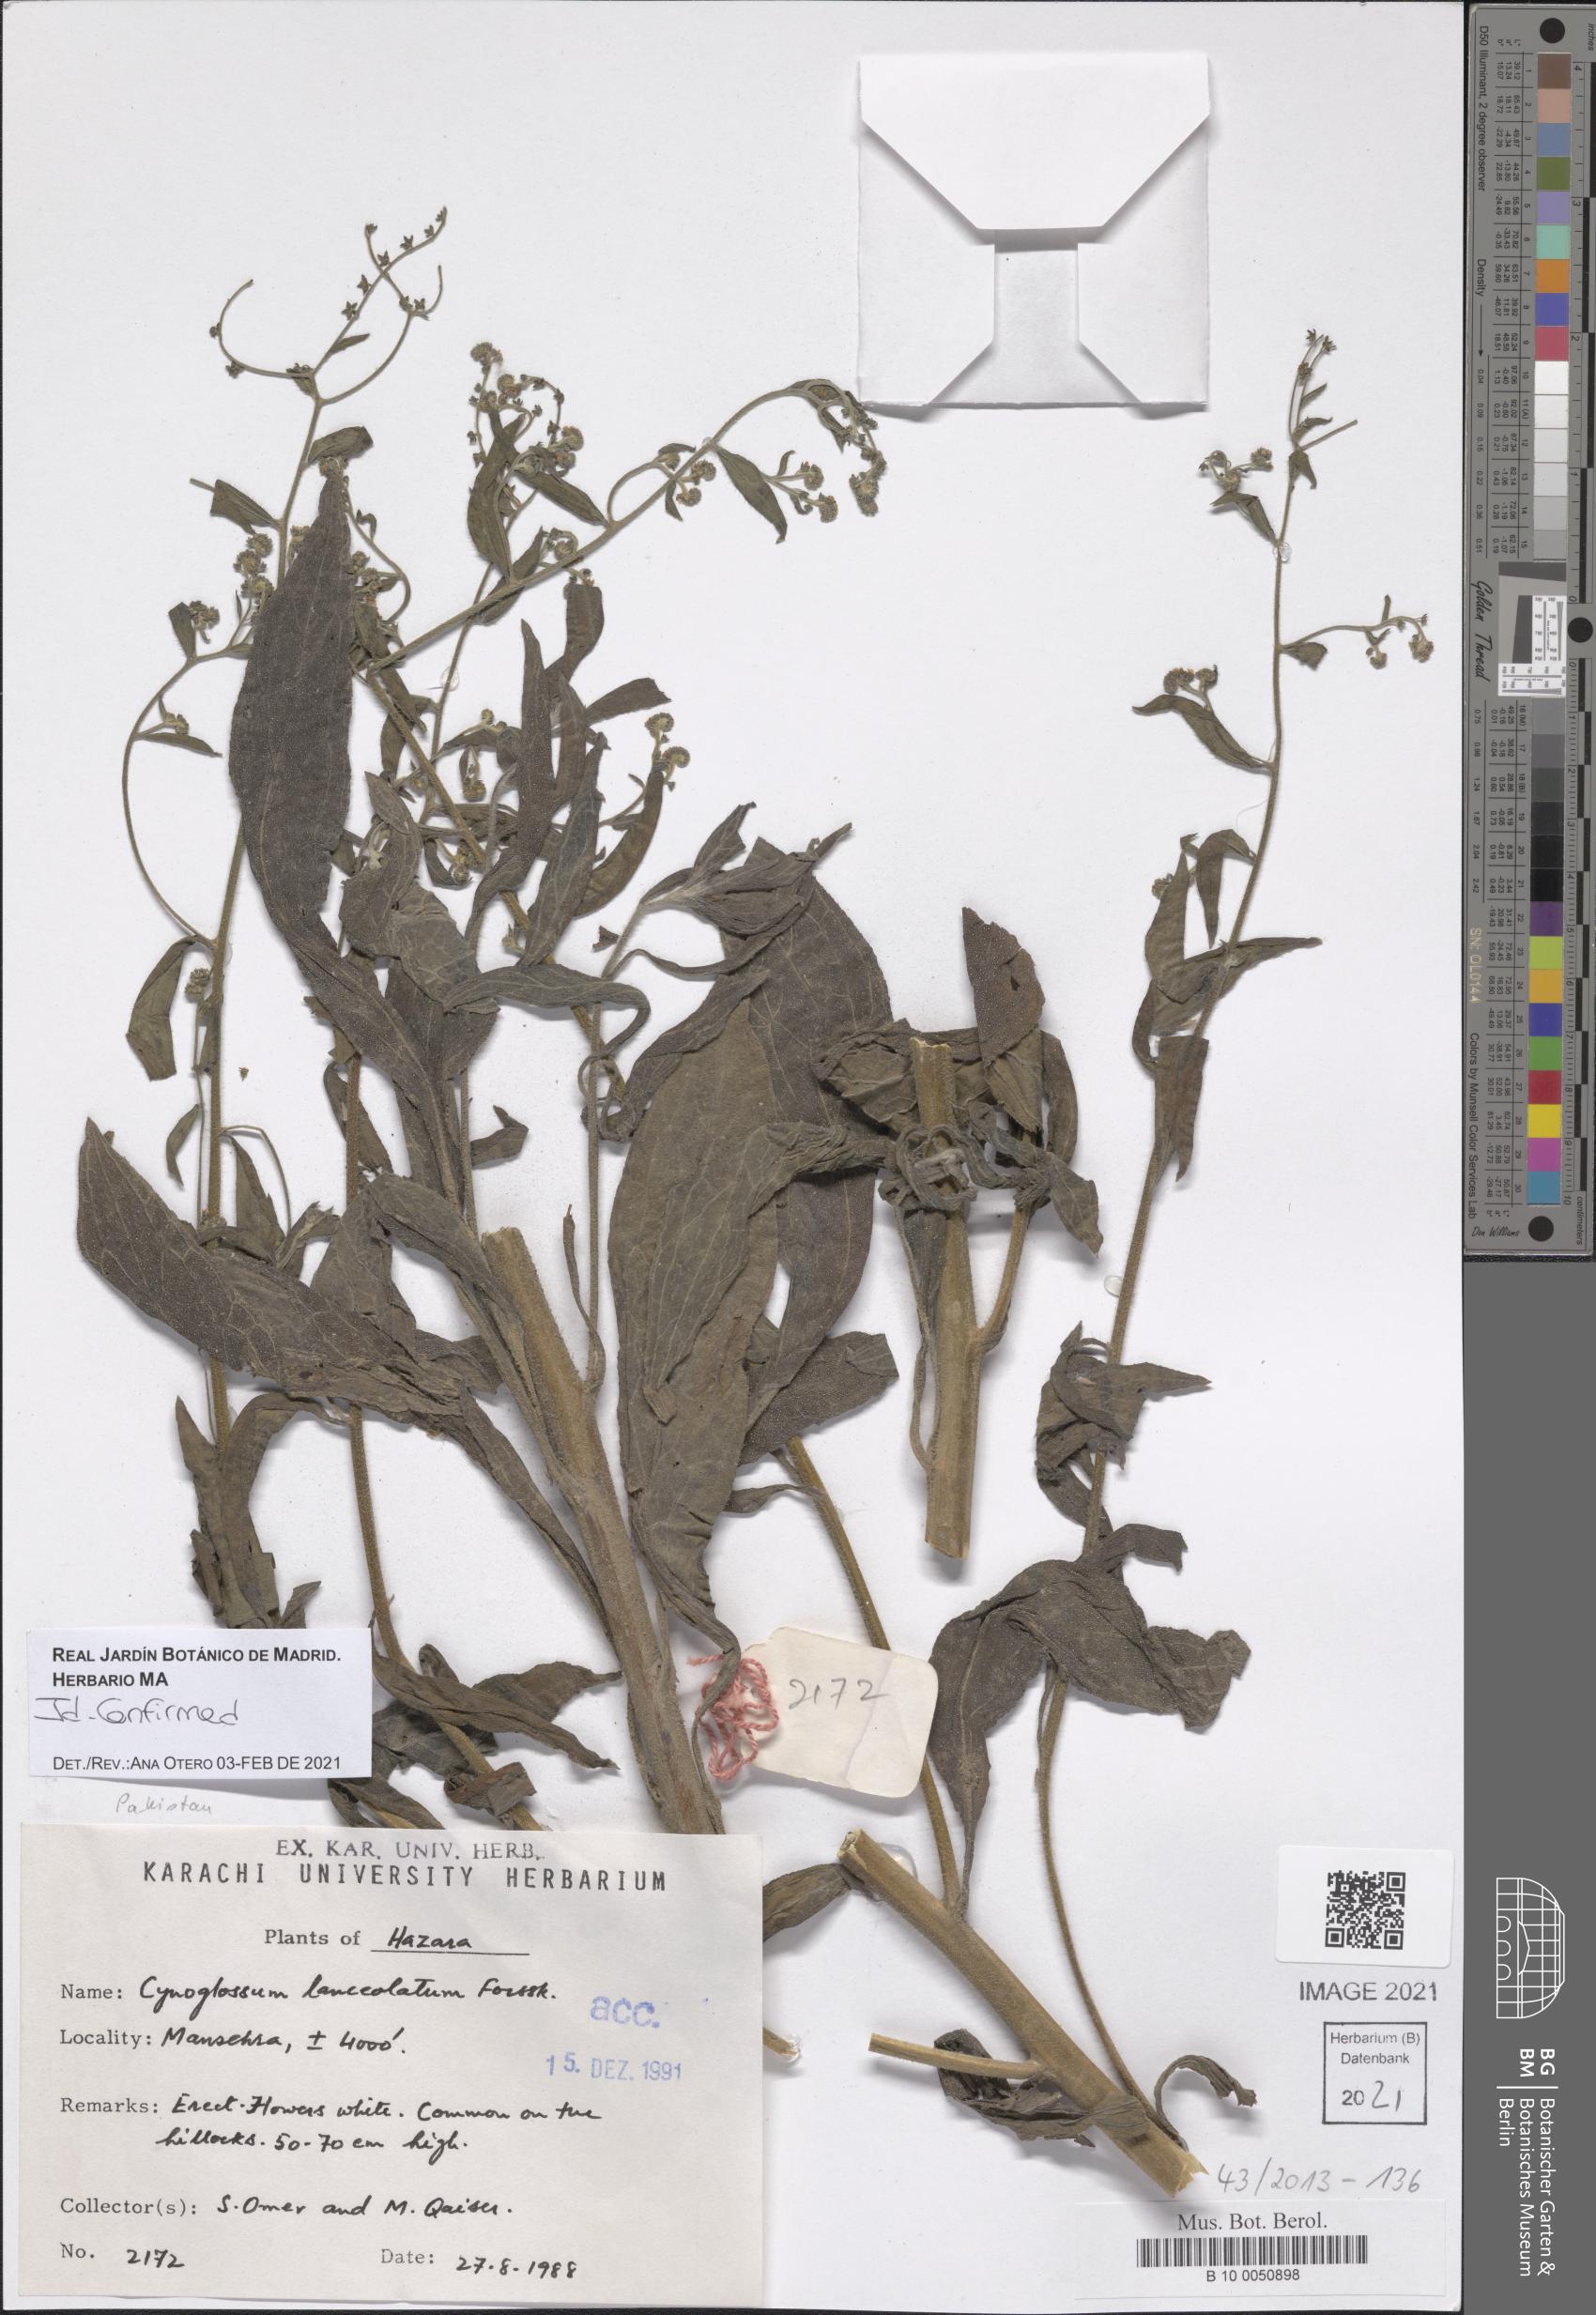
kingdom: Plantae
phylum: Tracheophyta
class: Magnoliopsida
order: Boraginales
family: Boraginaceae
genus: Paracynoglossum
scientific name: Paracynoglossum lanceolatum
